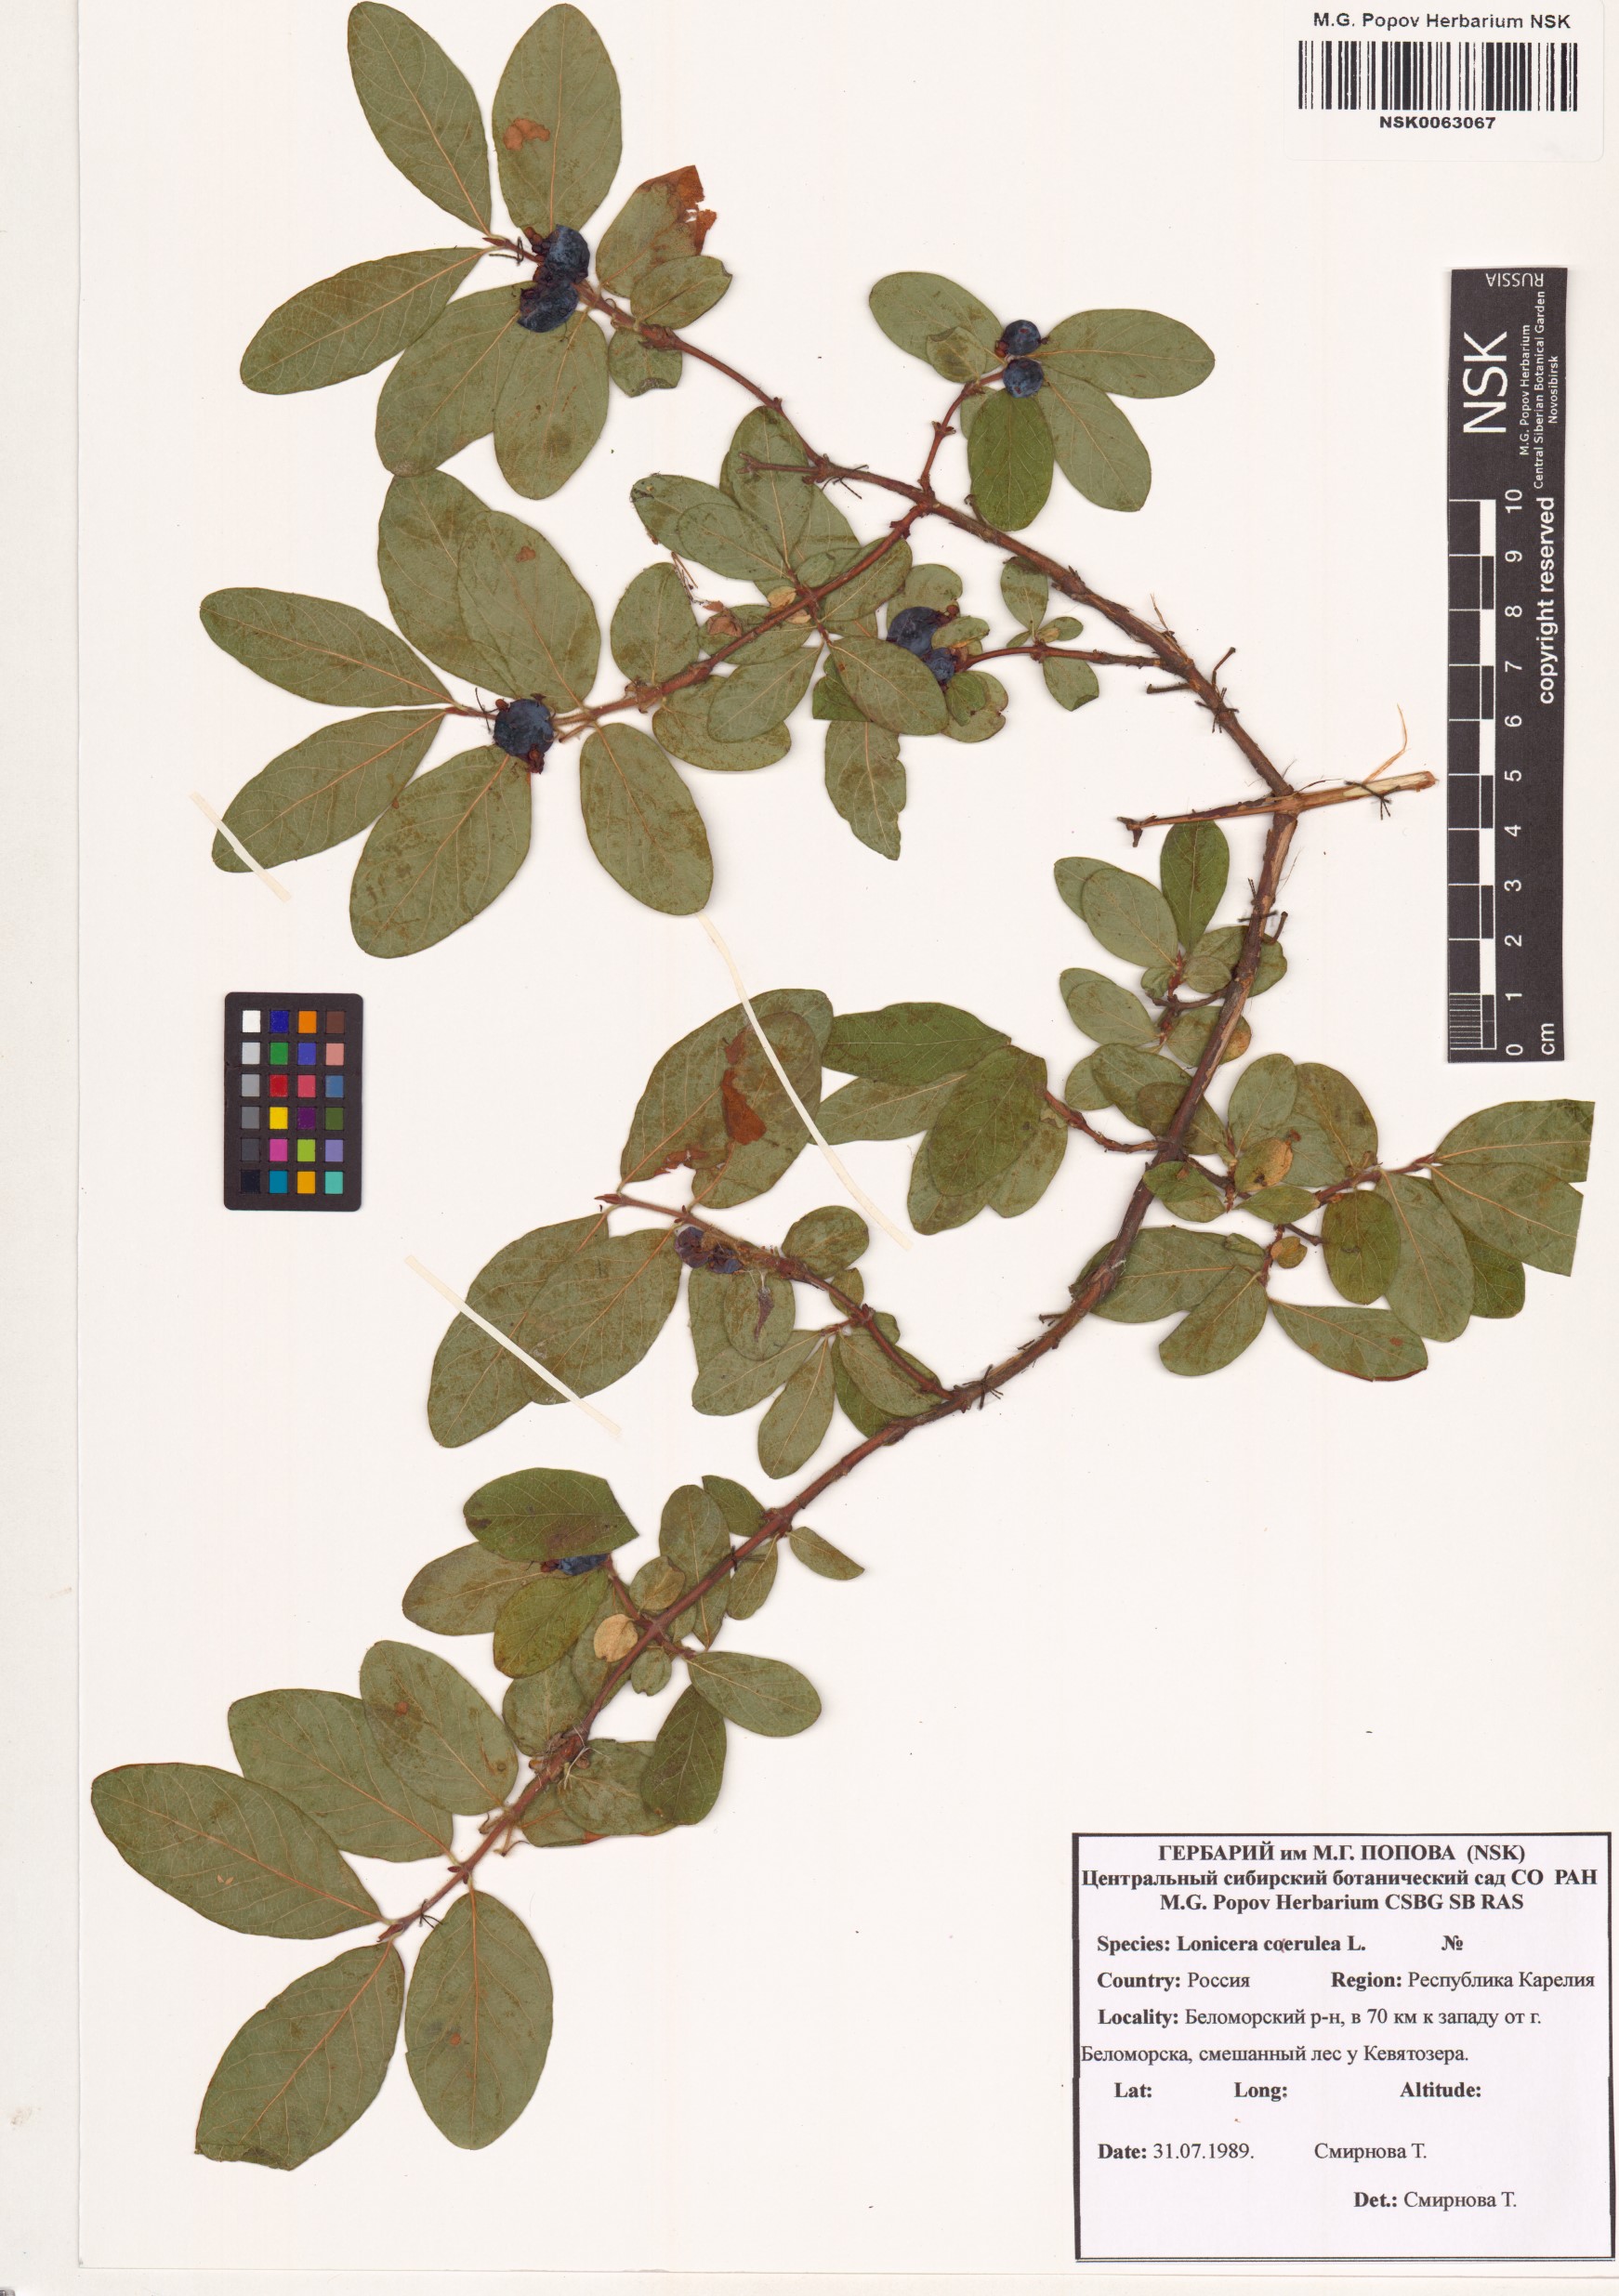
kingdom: Plantae
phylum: Tracheophyta
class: Magnoliopsida
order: Dipsacales
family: Caprifoliaceae
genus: Lonicera
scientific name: Lonicera caerulea
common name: Blue honeysuckle
